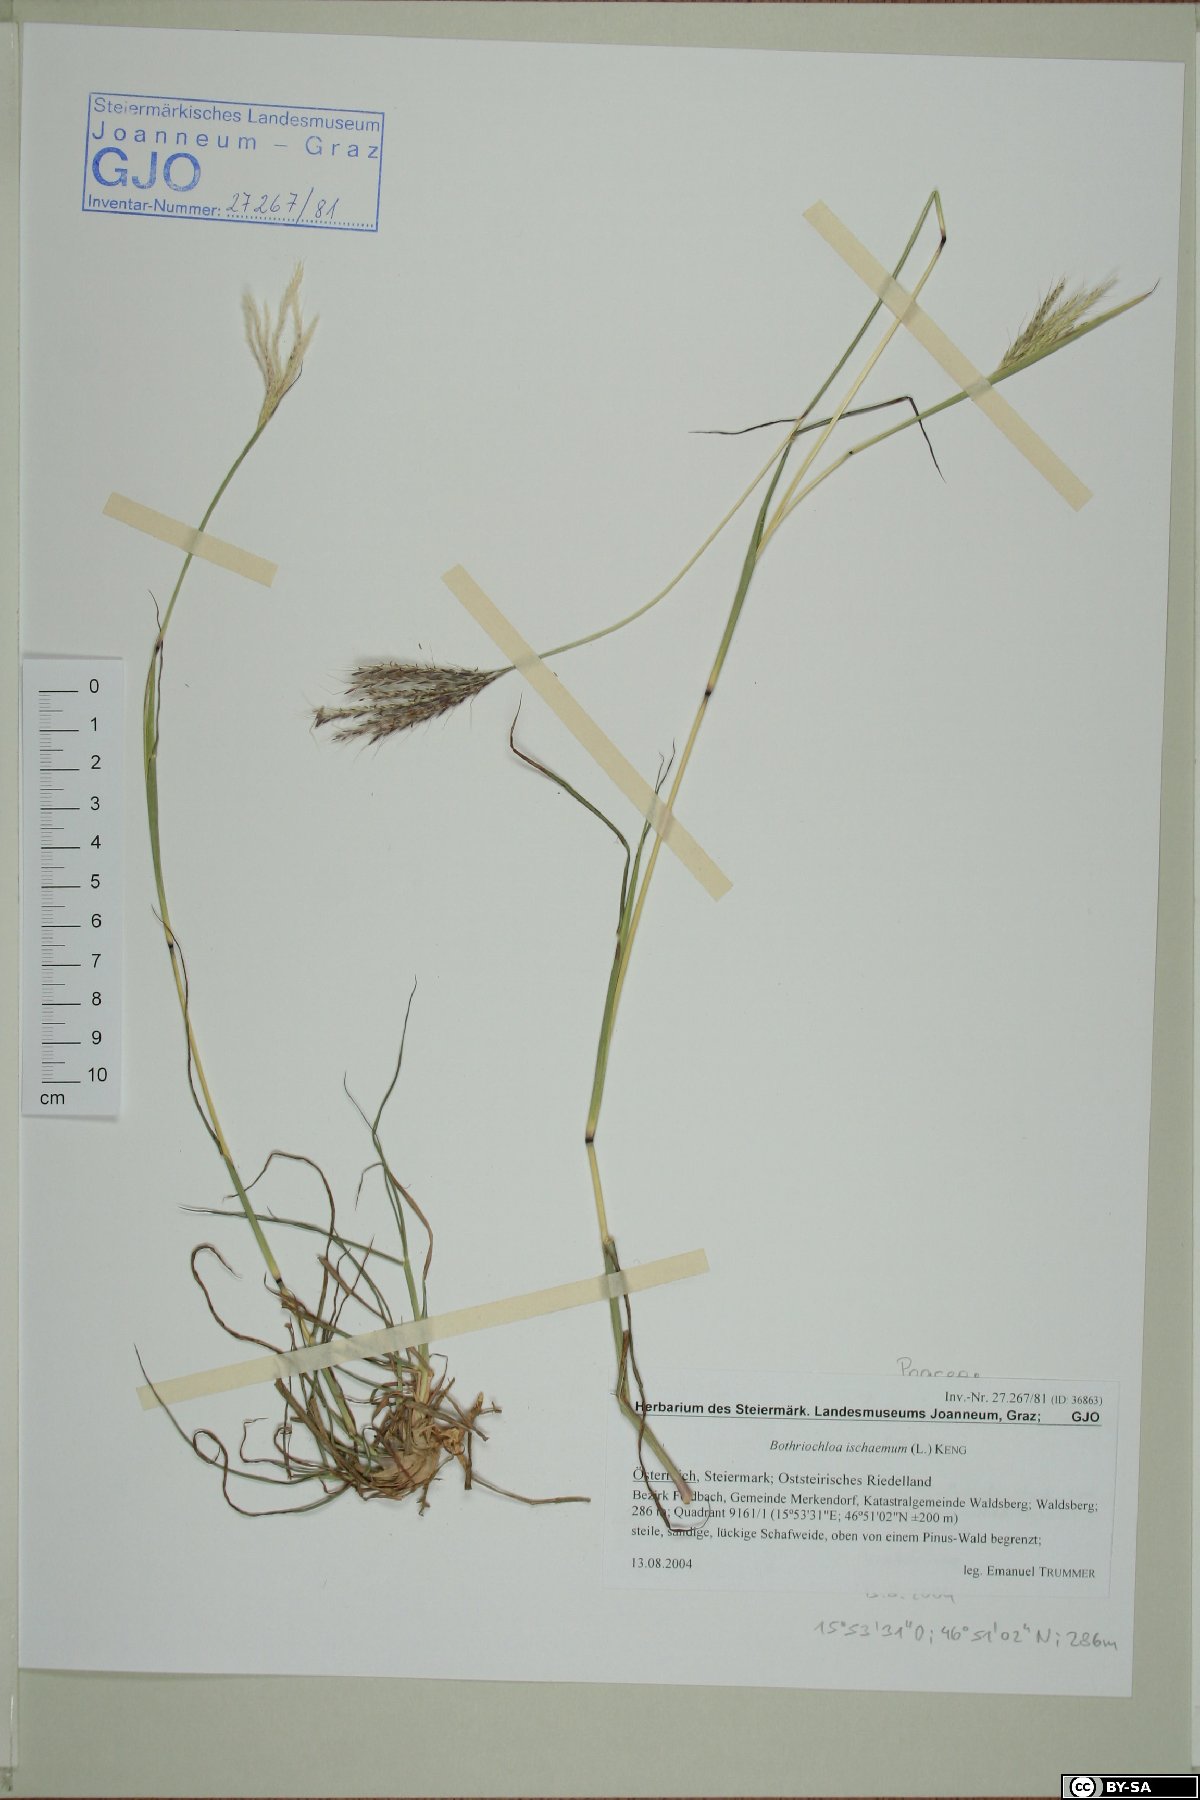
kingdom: Plantae
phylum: Tracheophyta
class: Liliopsida
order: Poales
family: Poaceae
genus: Bothriochloa
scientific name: Bothriochloa ischaemum
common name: Yellow bluestem
